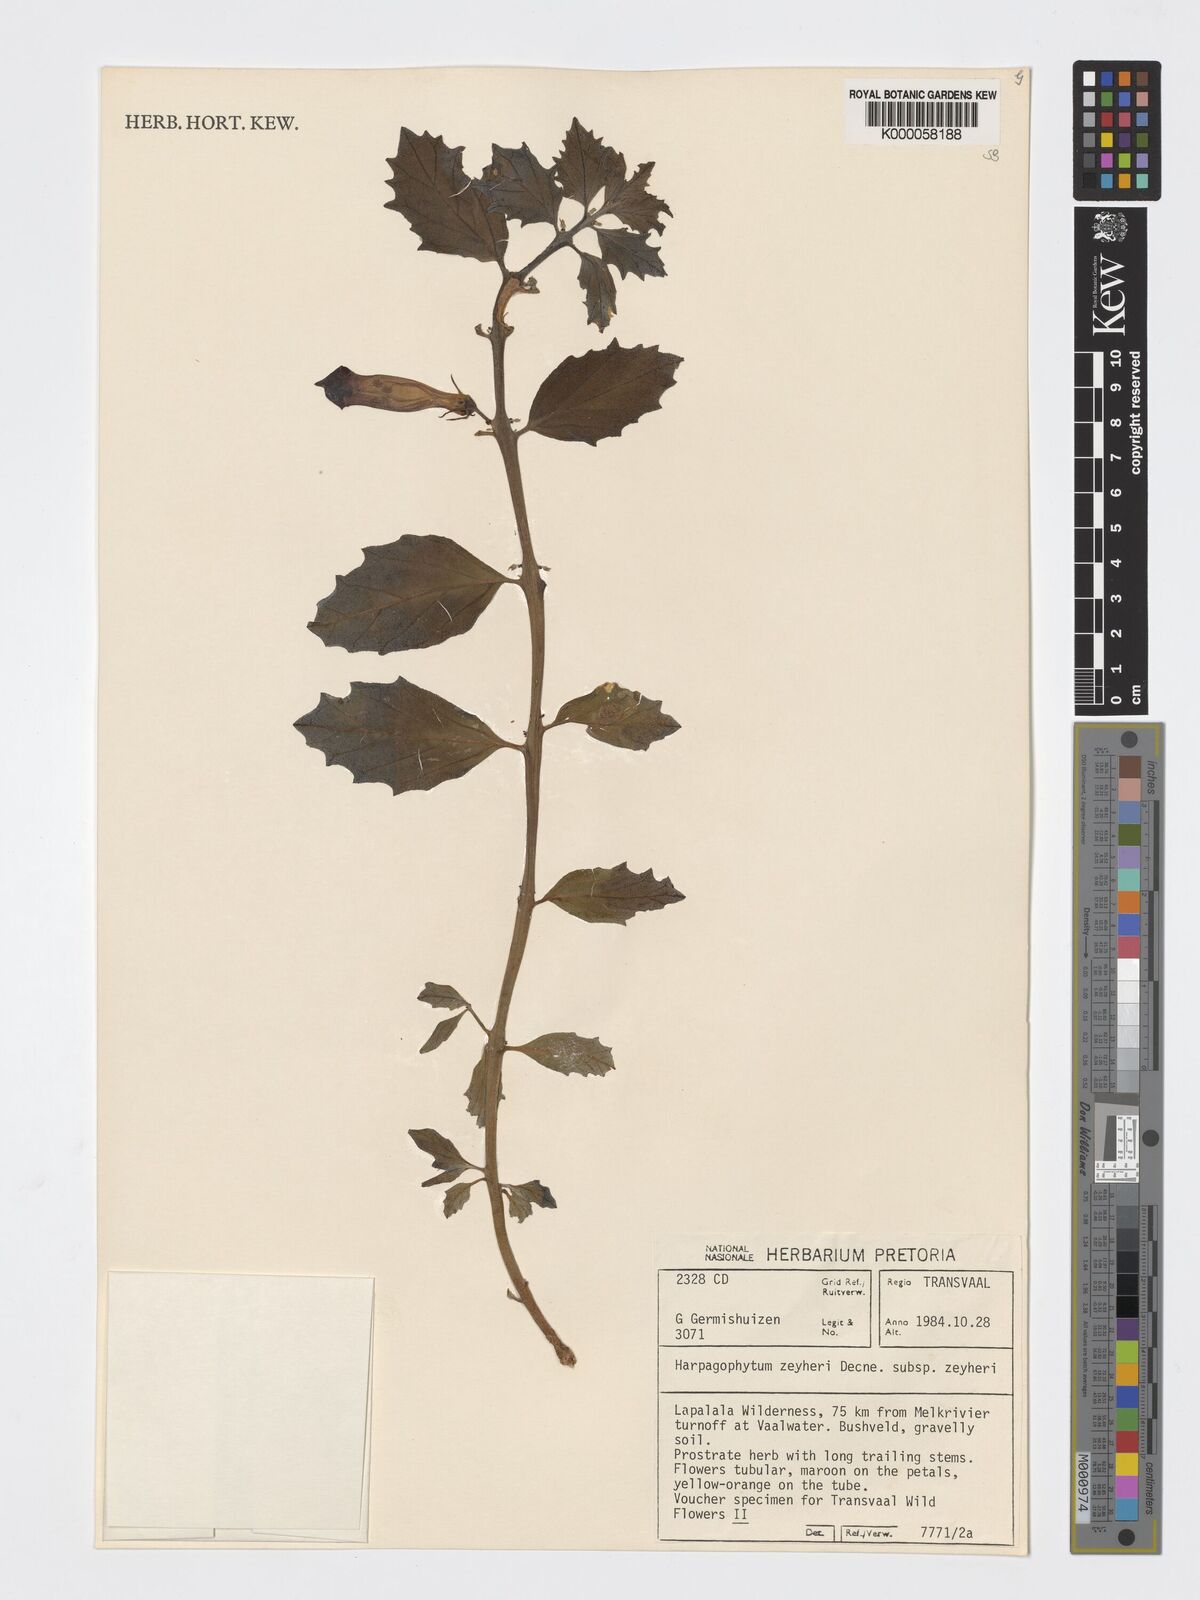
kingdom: Plantae
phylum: Tracheophyta
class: Magnoliopsida
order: Lamiales
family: Pedaliaceae
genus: Harpagophytum
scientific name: Harpagophytum zeyheri
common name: Grappleplant
